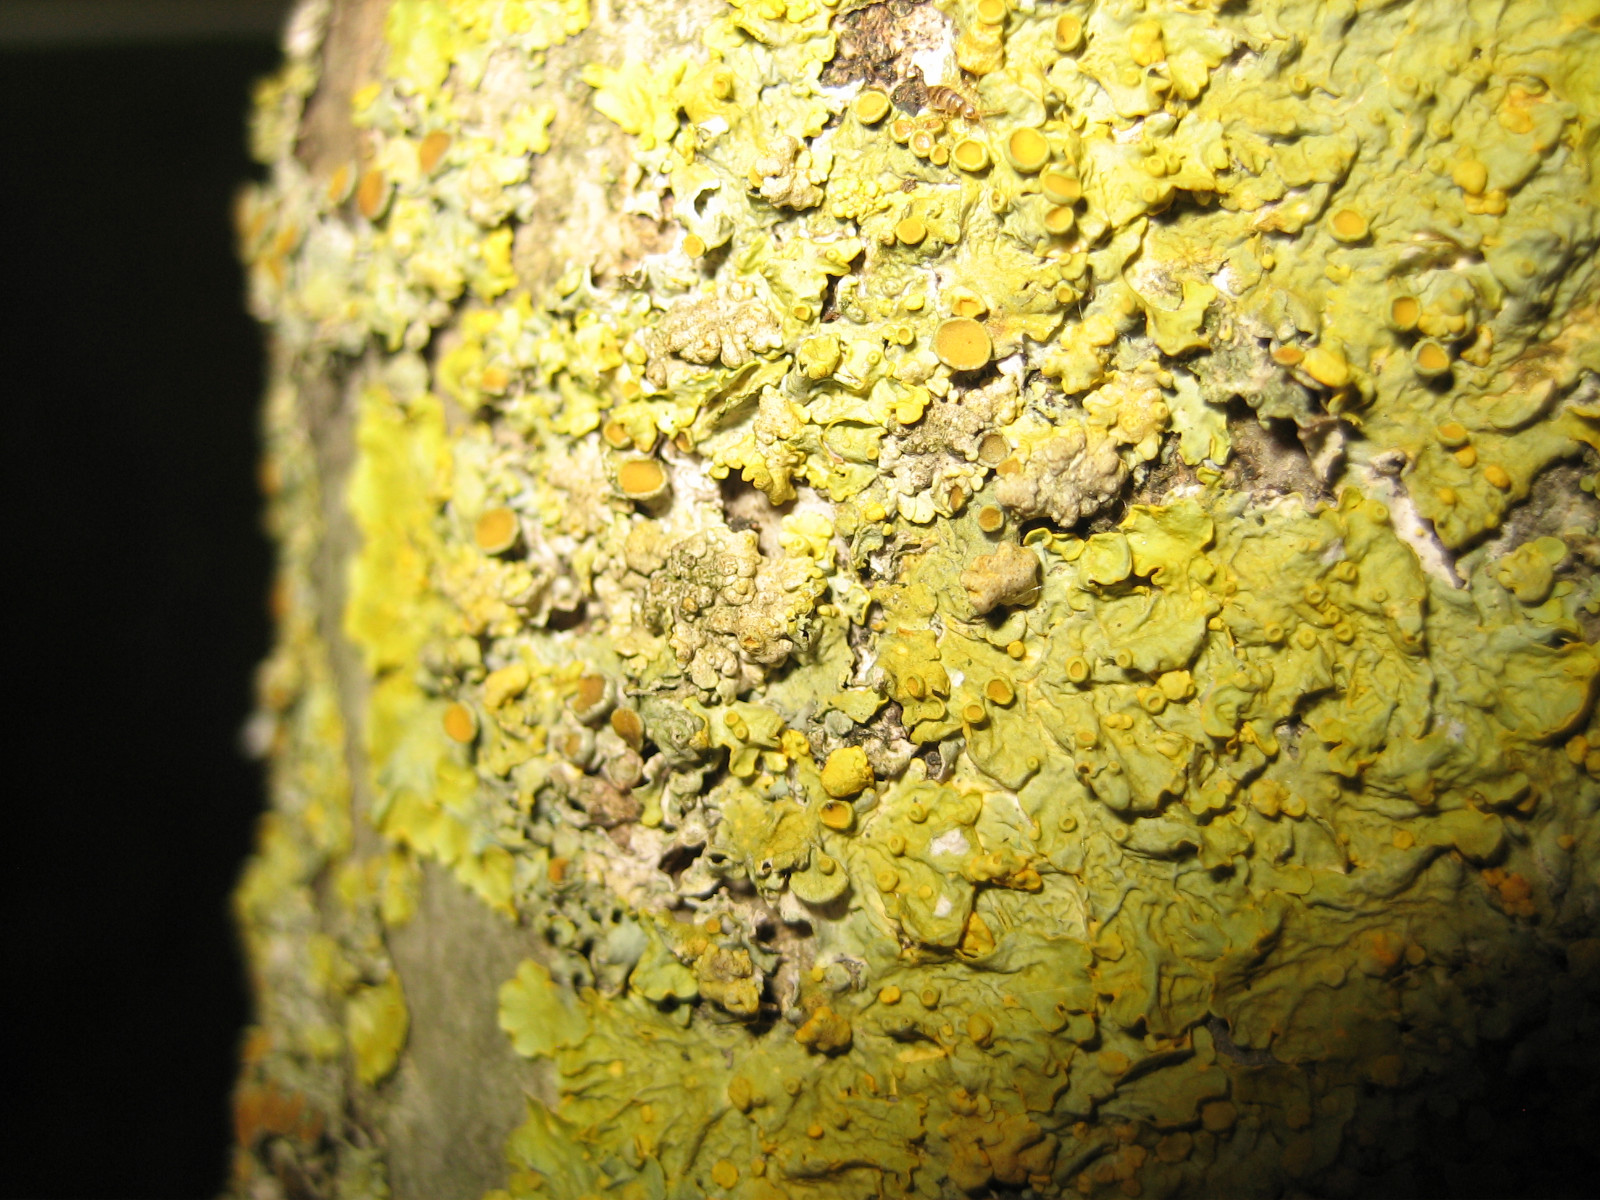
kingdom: Fungi
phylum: Ascomycota
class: Eurotiomycetes
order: Verrucariales
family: Verrucariaceae
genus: Telogalla
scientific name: Telogalla olivieri
